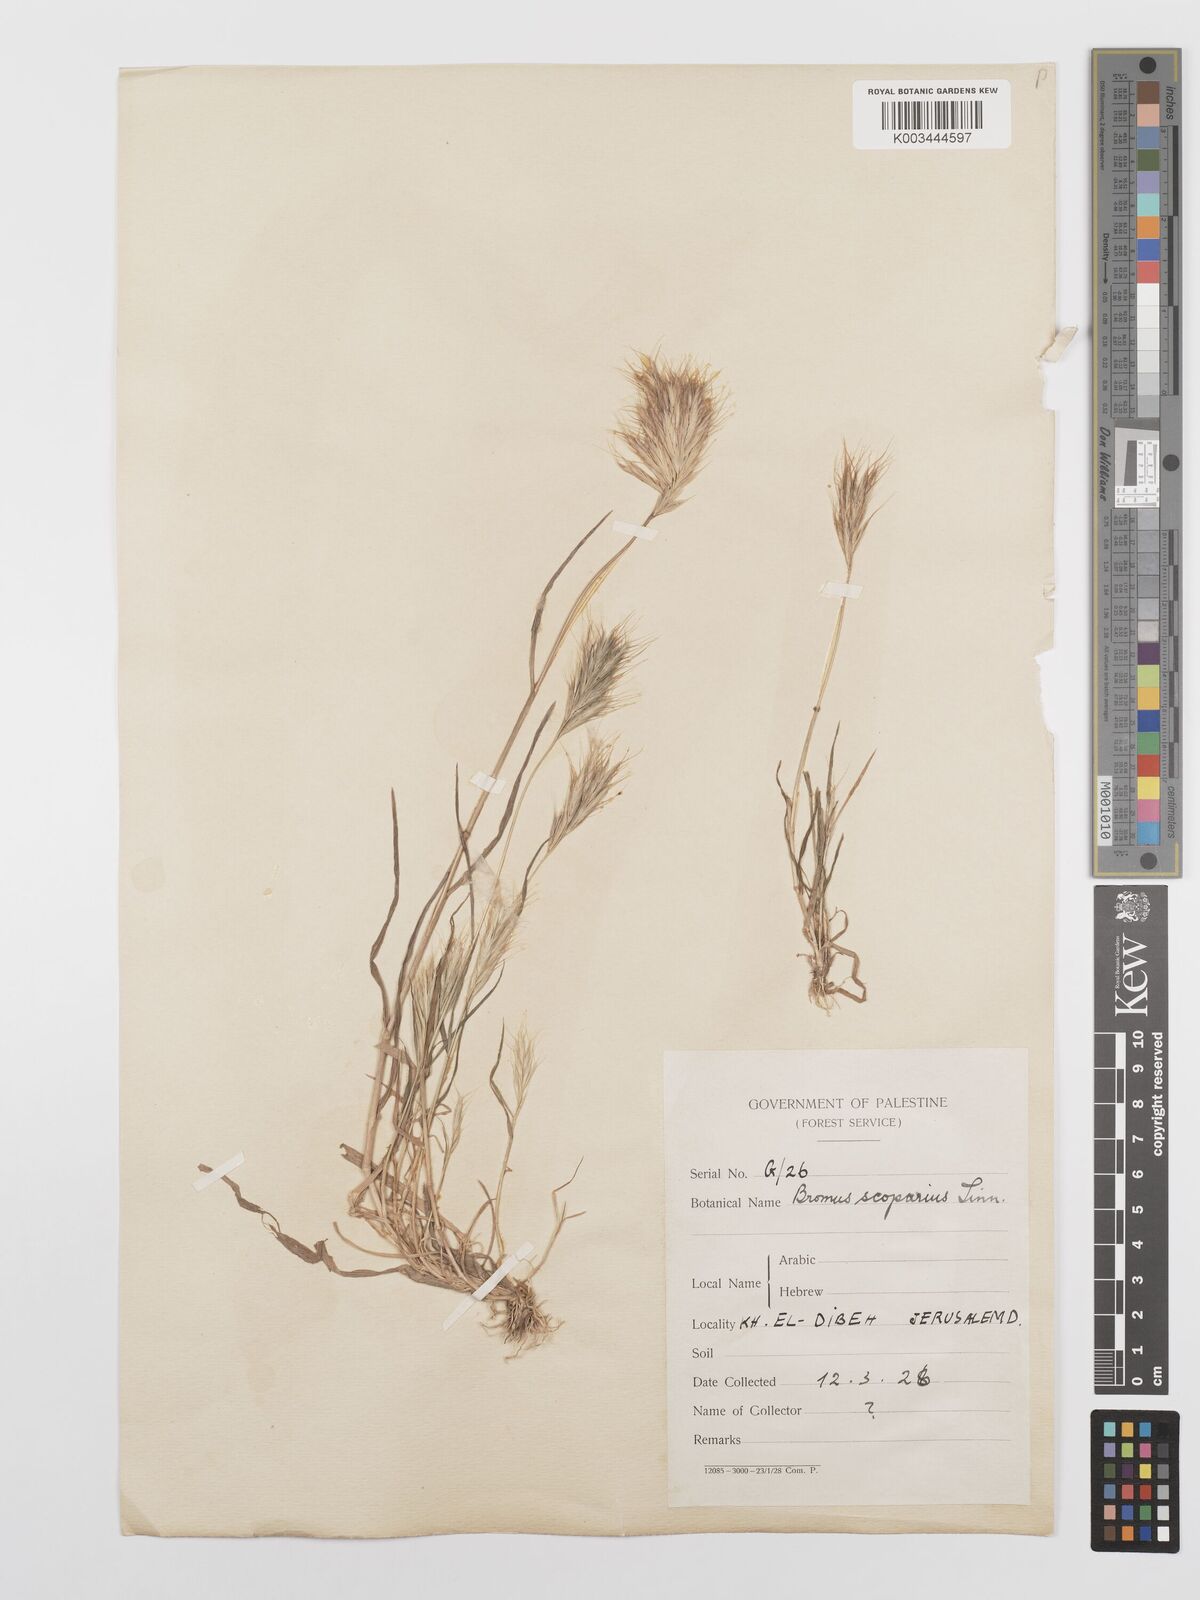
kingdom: Plantae
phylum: Tracheophyta
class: Liliopsida
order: Poales
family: Poaceae
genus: Bromus
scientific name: Bromus scoparius
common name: Broom brome
